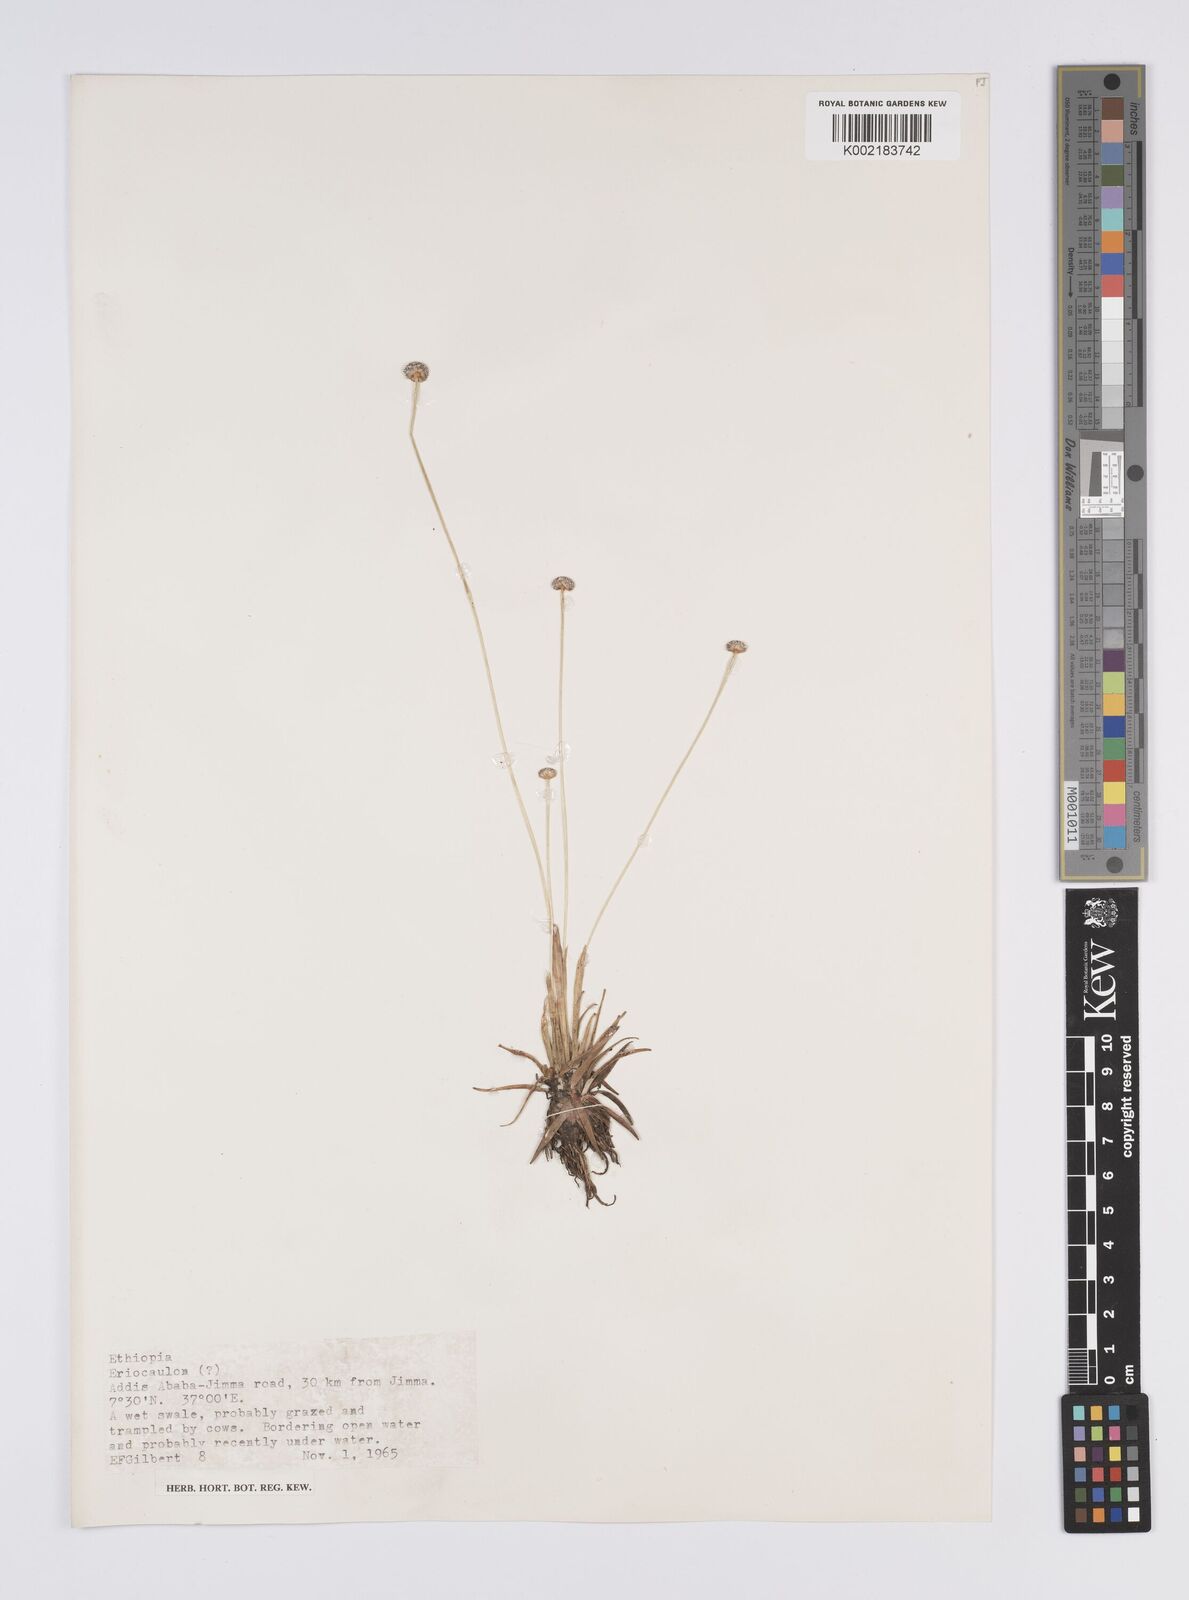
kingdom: Plantae
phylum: Tracheophyta
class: Liliopsida
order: Poales
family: Eriocaulaceae
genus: Eriocaulon
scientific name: Eriocaulon
